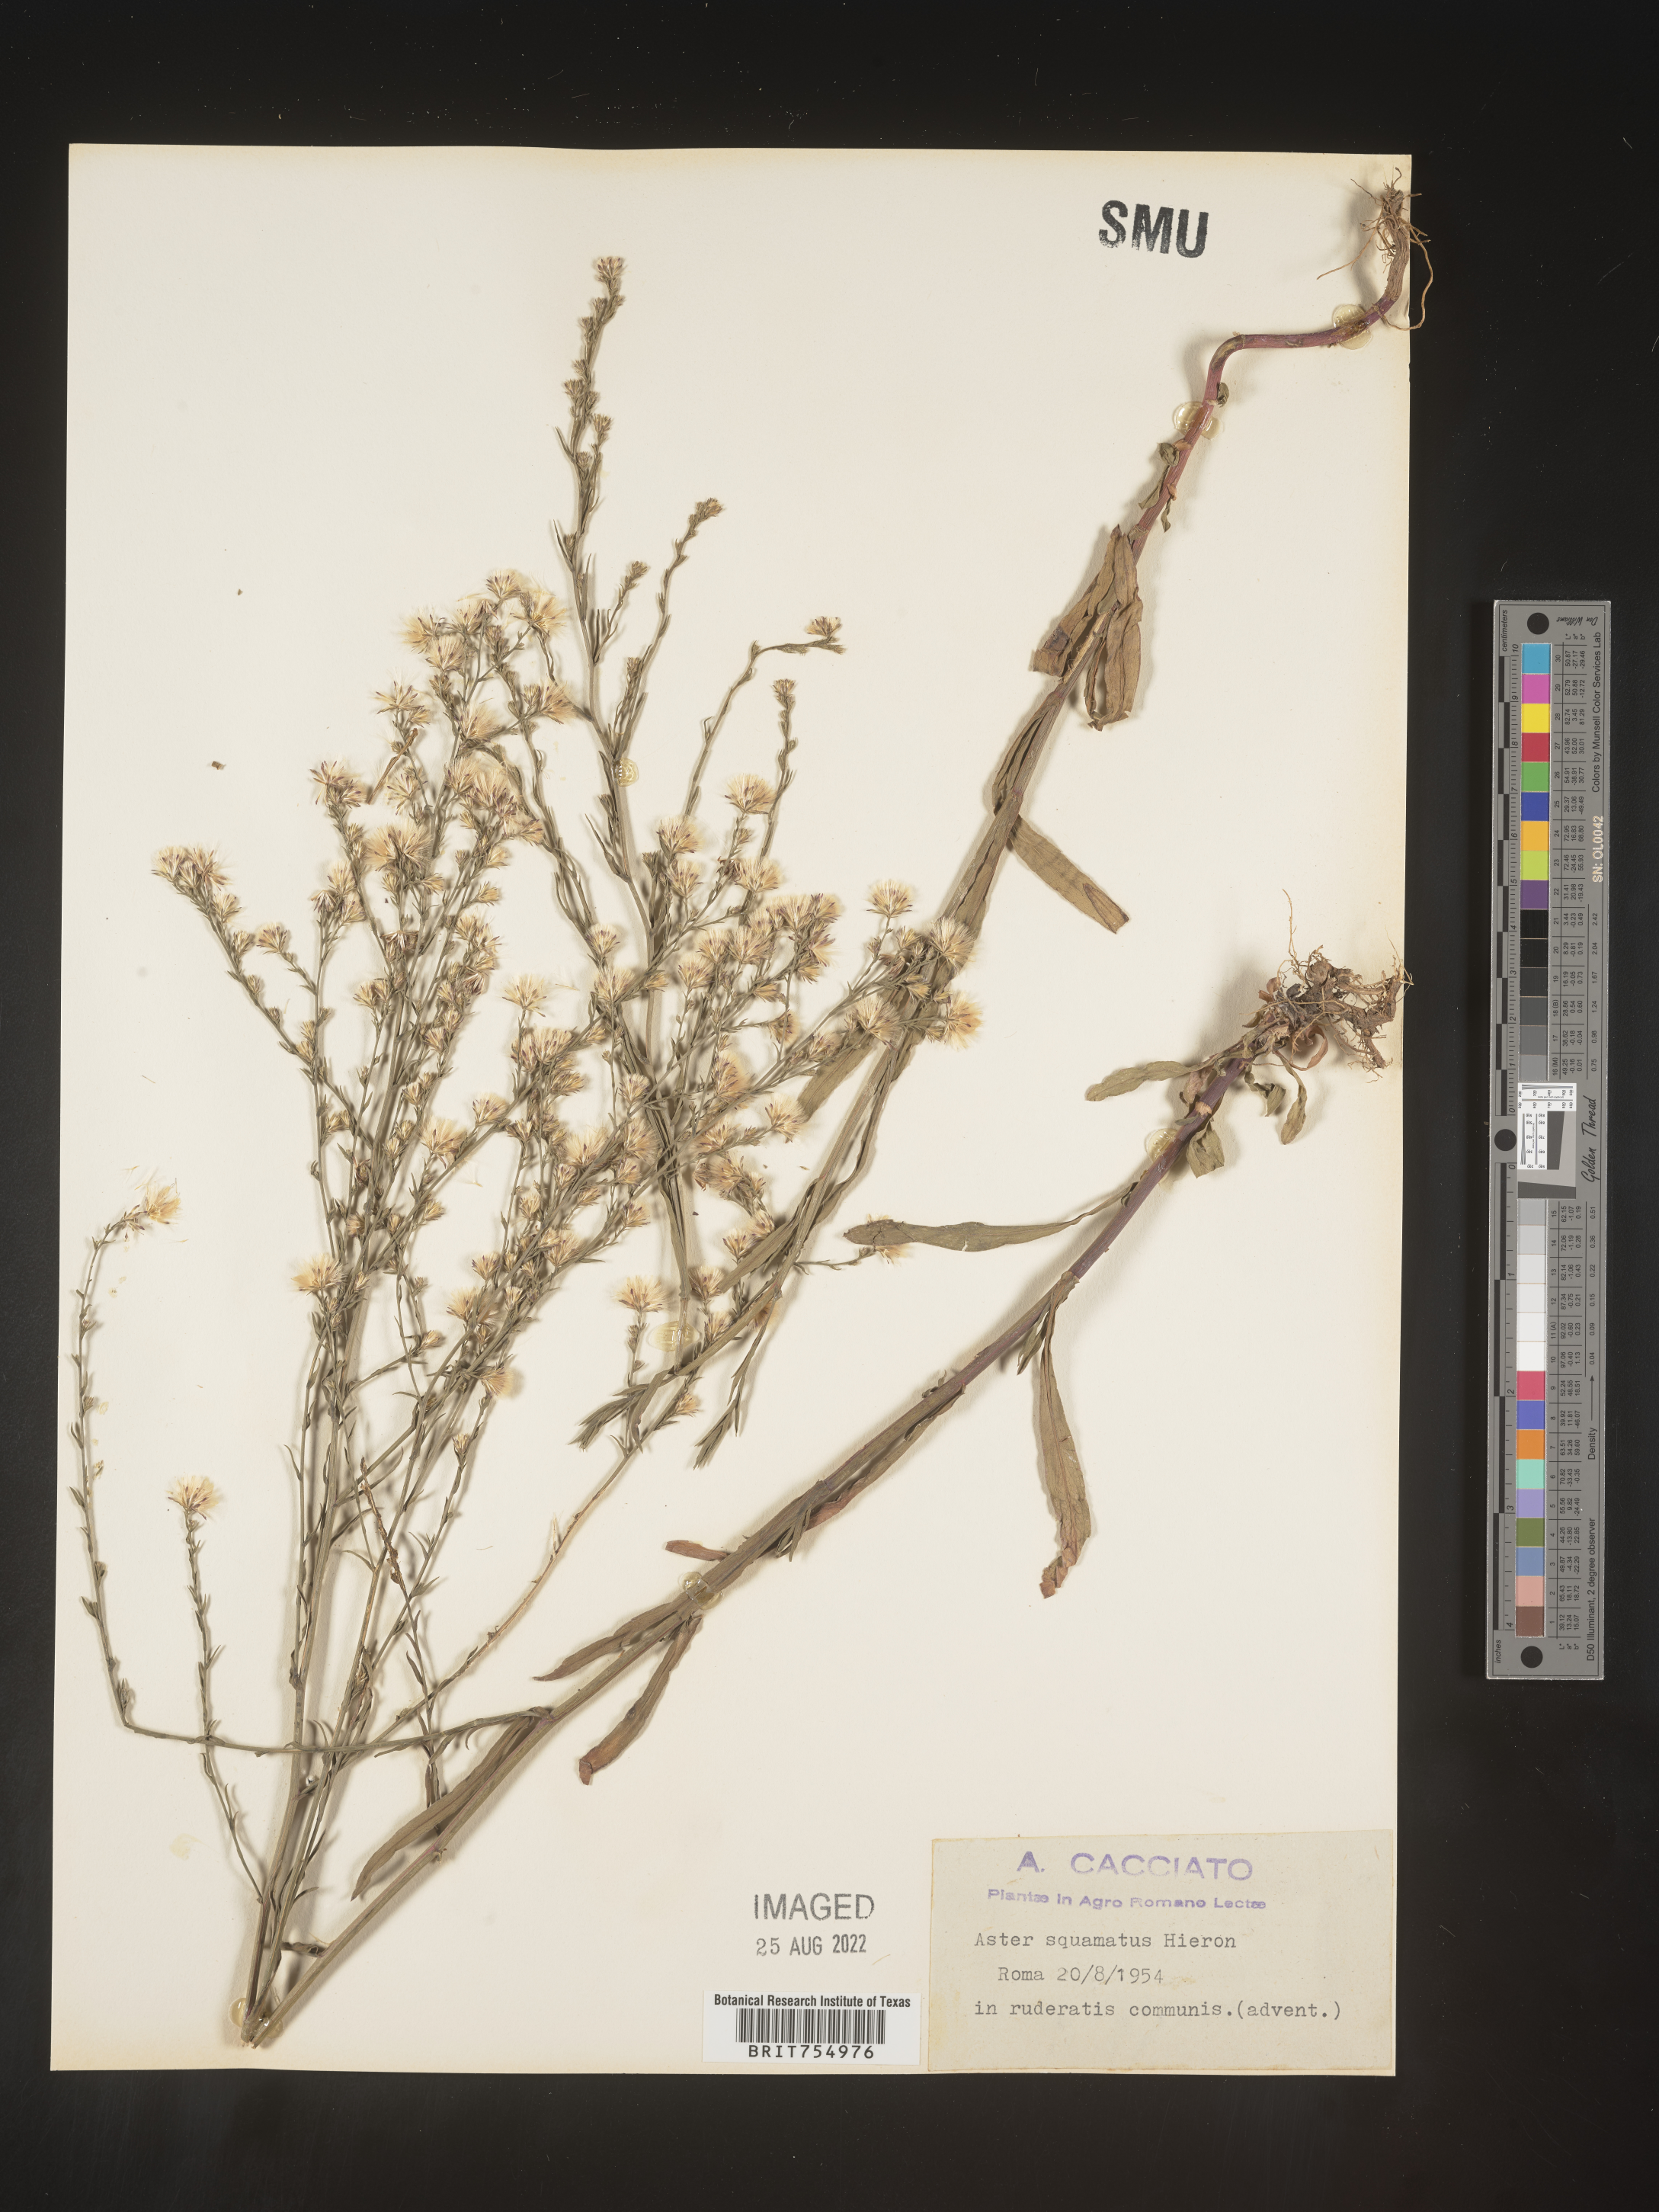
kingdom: Plantae
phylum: Tracheophyta
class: Magnoliopsida
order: Asterales
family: Asteraceae
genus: Symphyotrichum
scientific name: Symphyotrichum
